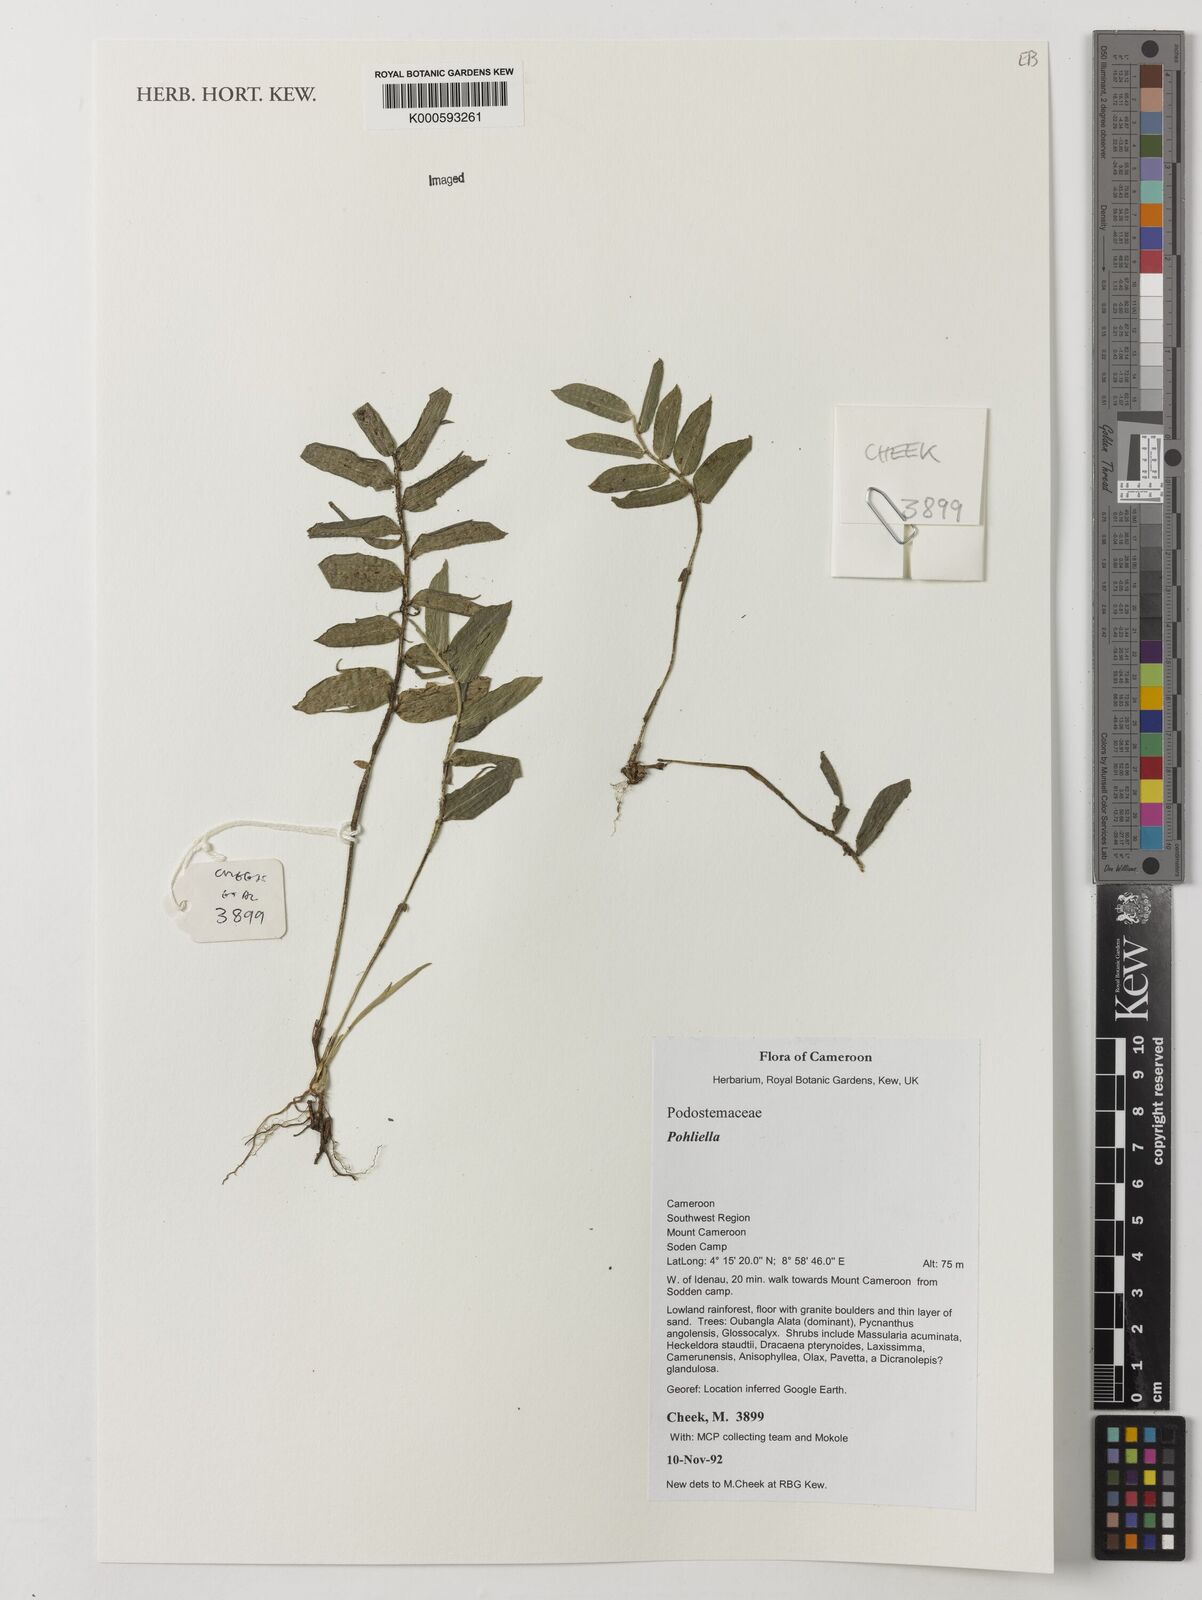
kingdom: Plantae
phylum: Tracheophyta
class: Magnoliopsida
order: Malpighiales
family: Podostemaceae
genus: Pohliella
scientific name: Pohliella
